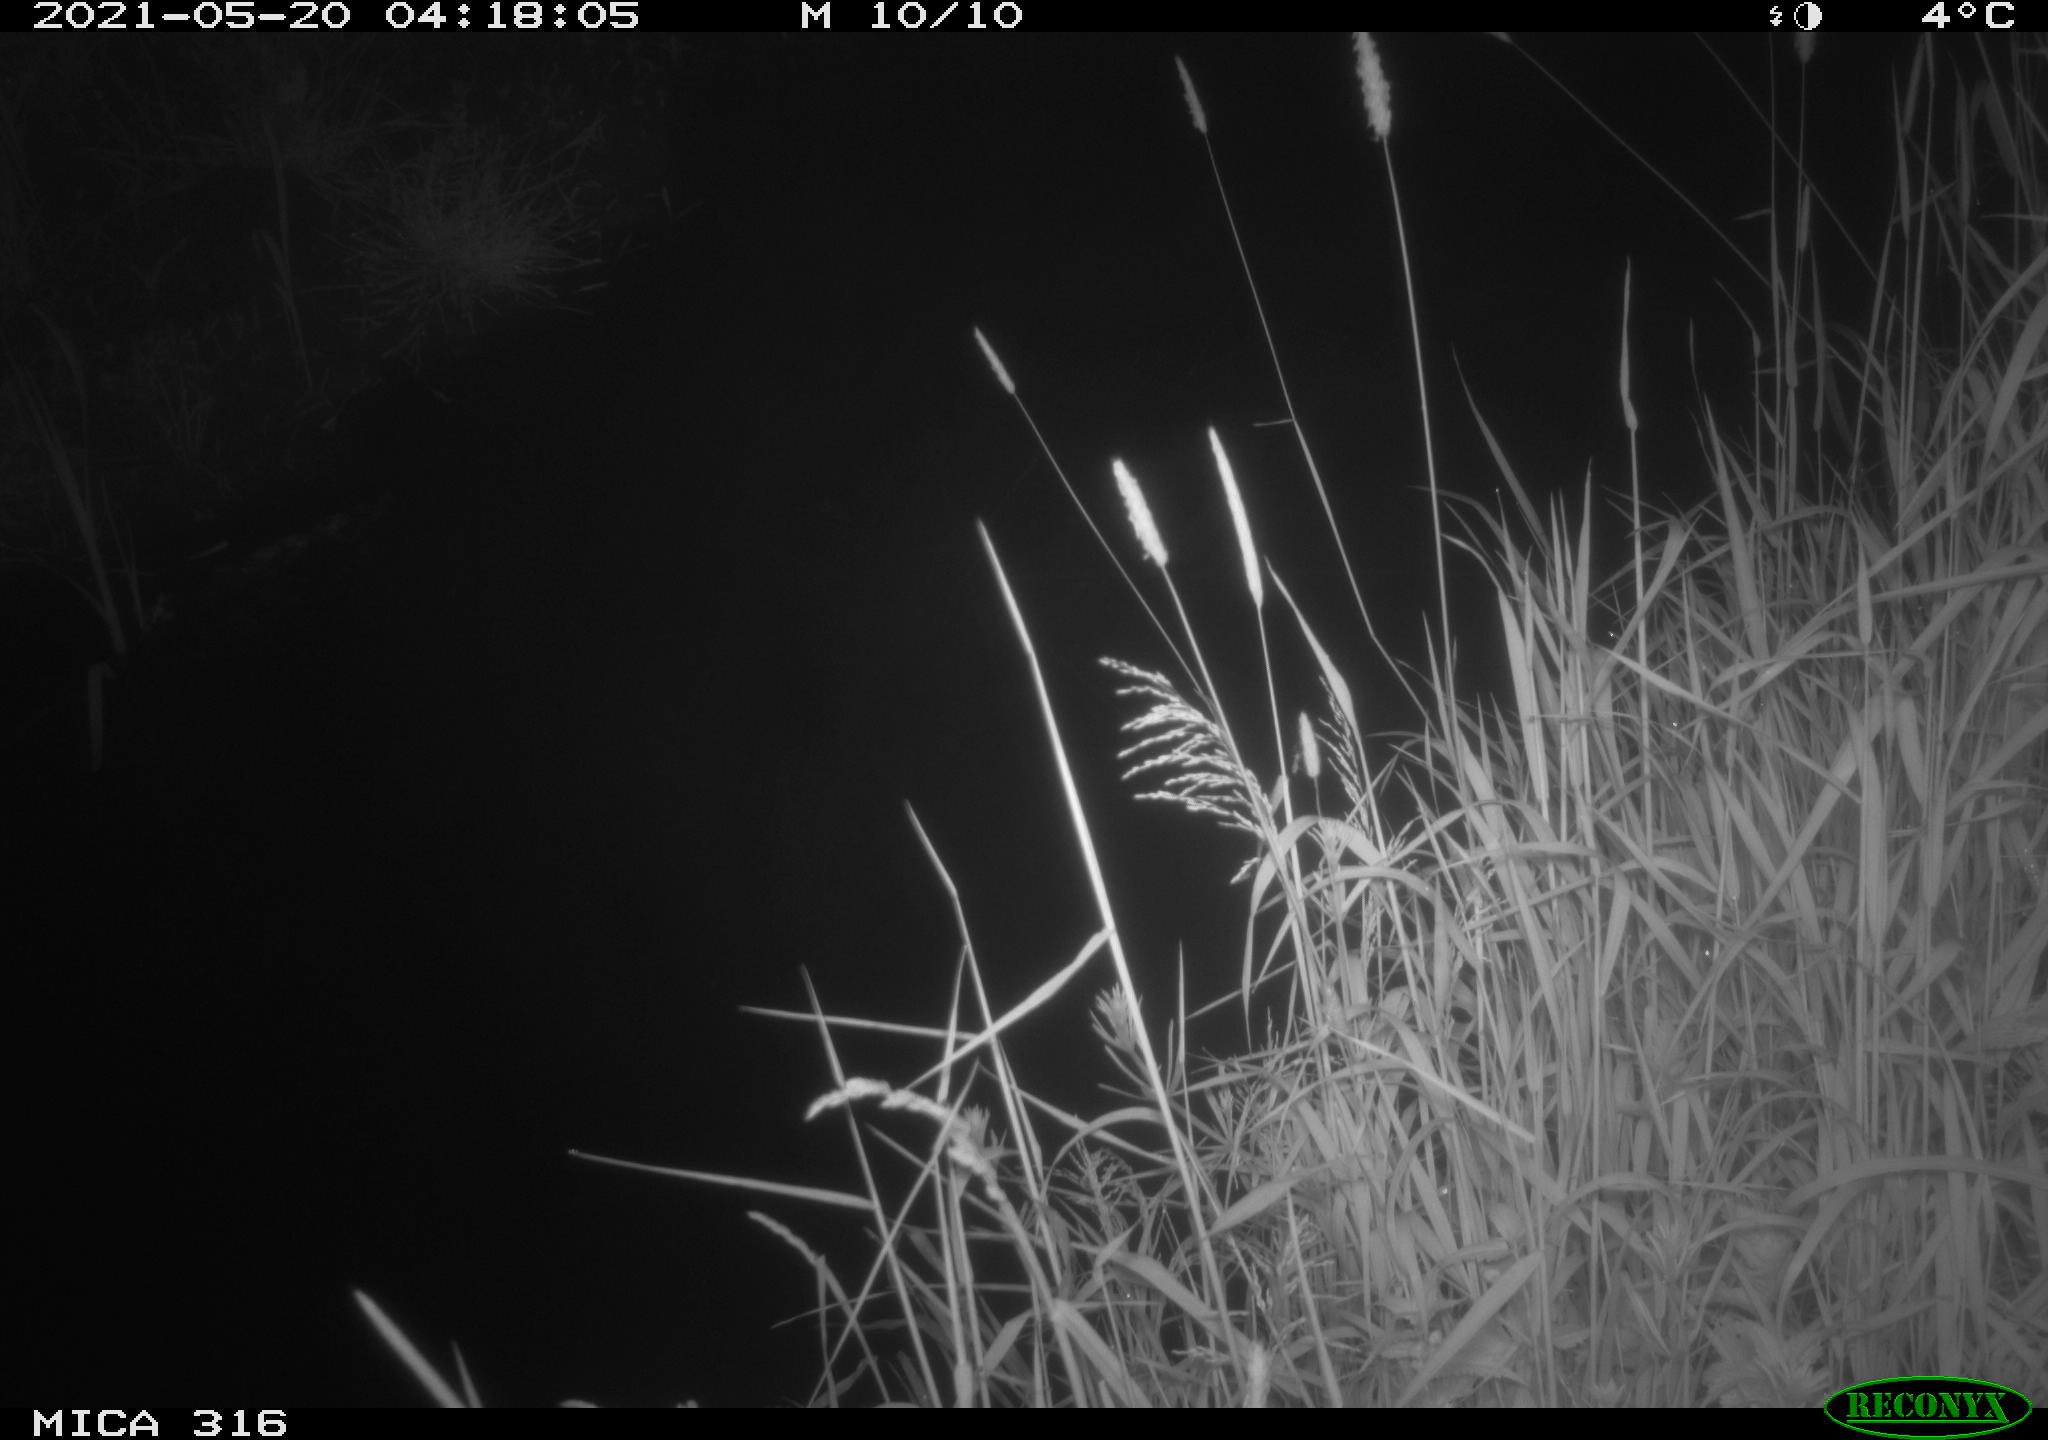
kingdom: Animalia
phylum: Chordata
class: Aves
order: Anseriformes
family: Anatidae
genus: Anas
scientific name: Anas platyrhynchos
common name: Mallard
